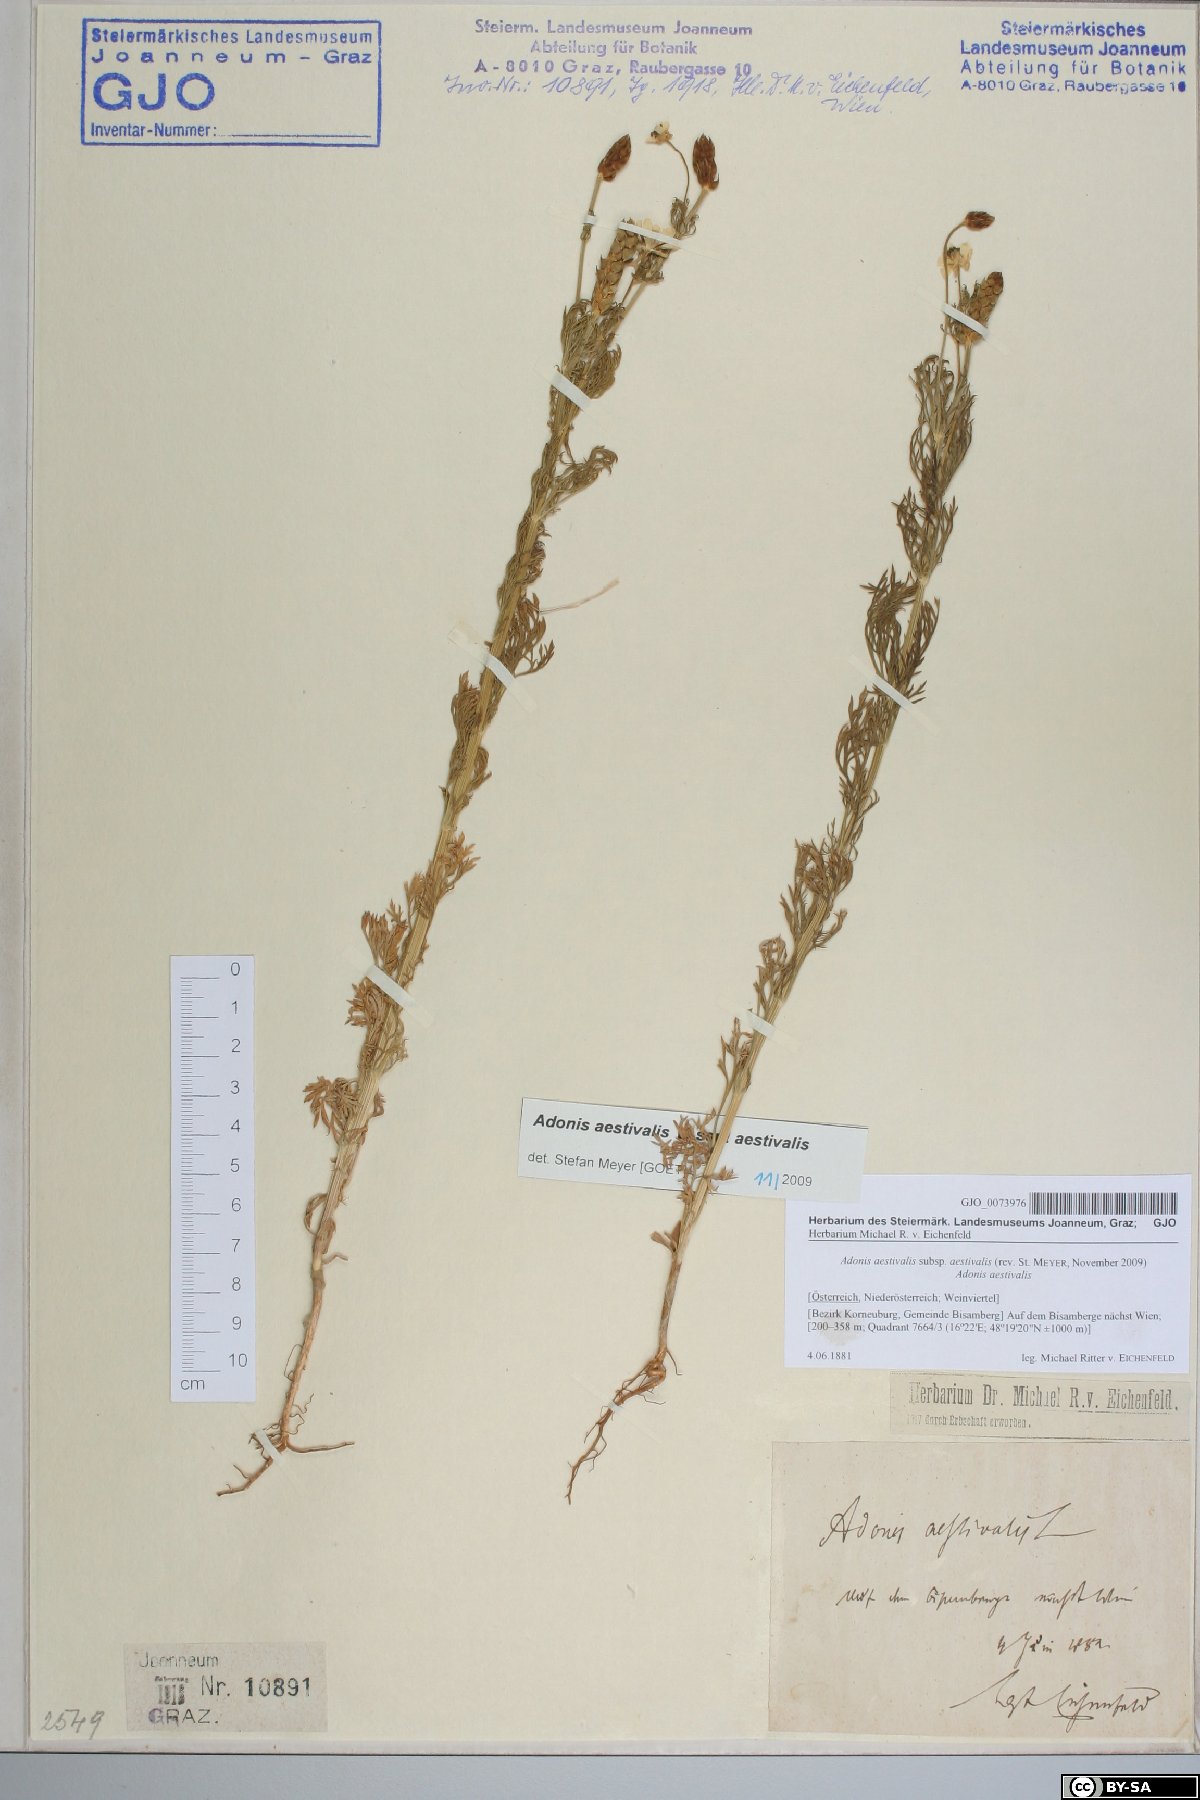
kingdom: Plantae
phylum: Tracheophyta
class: Magnoliopsida
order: Ranunculales
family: Ranunculaceae
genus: Adonis
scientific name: Adonis aestivalis
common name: Summer pheasant's-eye
